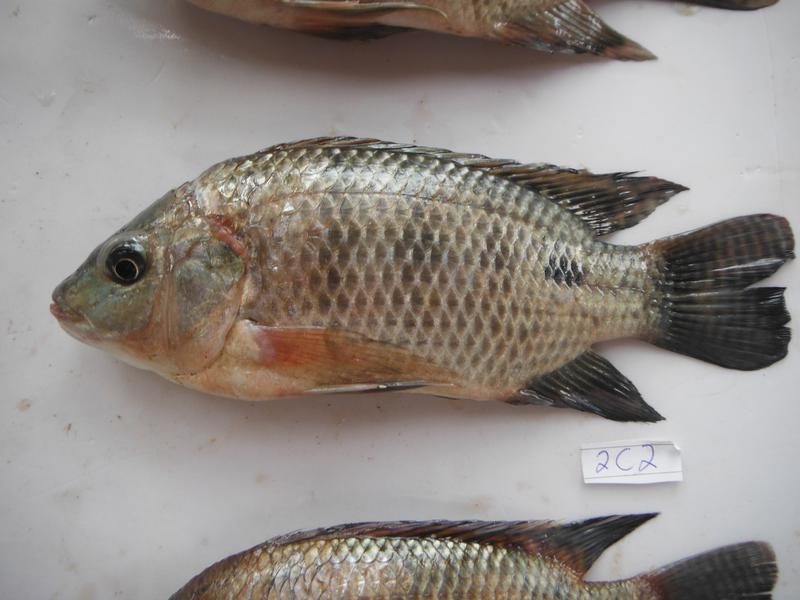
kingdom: Animalia
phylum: Chordata
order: Perciformes
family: Cichlidae
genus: Oreochromis
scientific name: Oreochromis urolepis
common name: Wami tilapia
